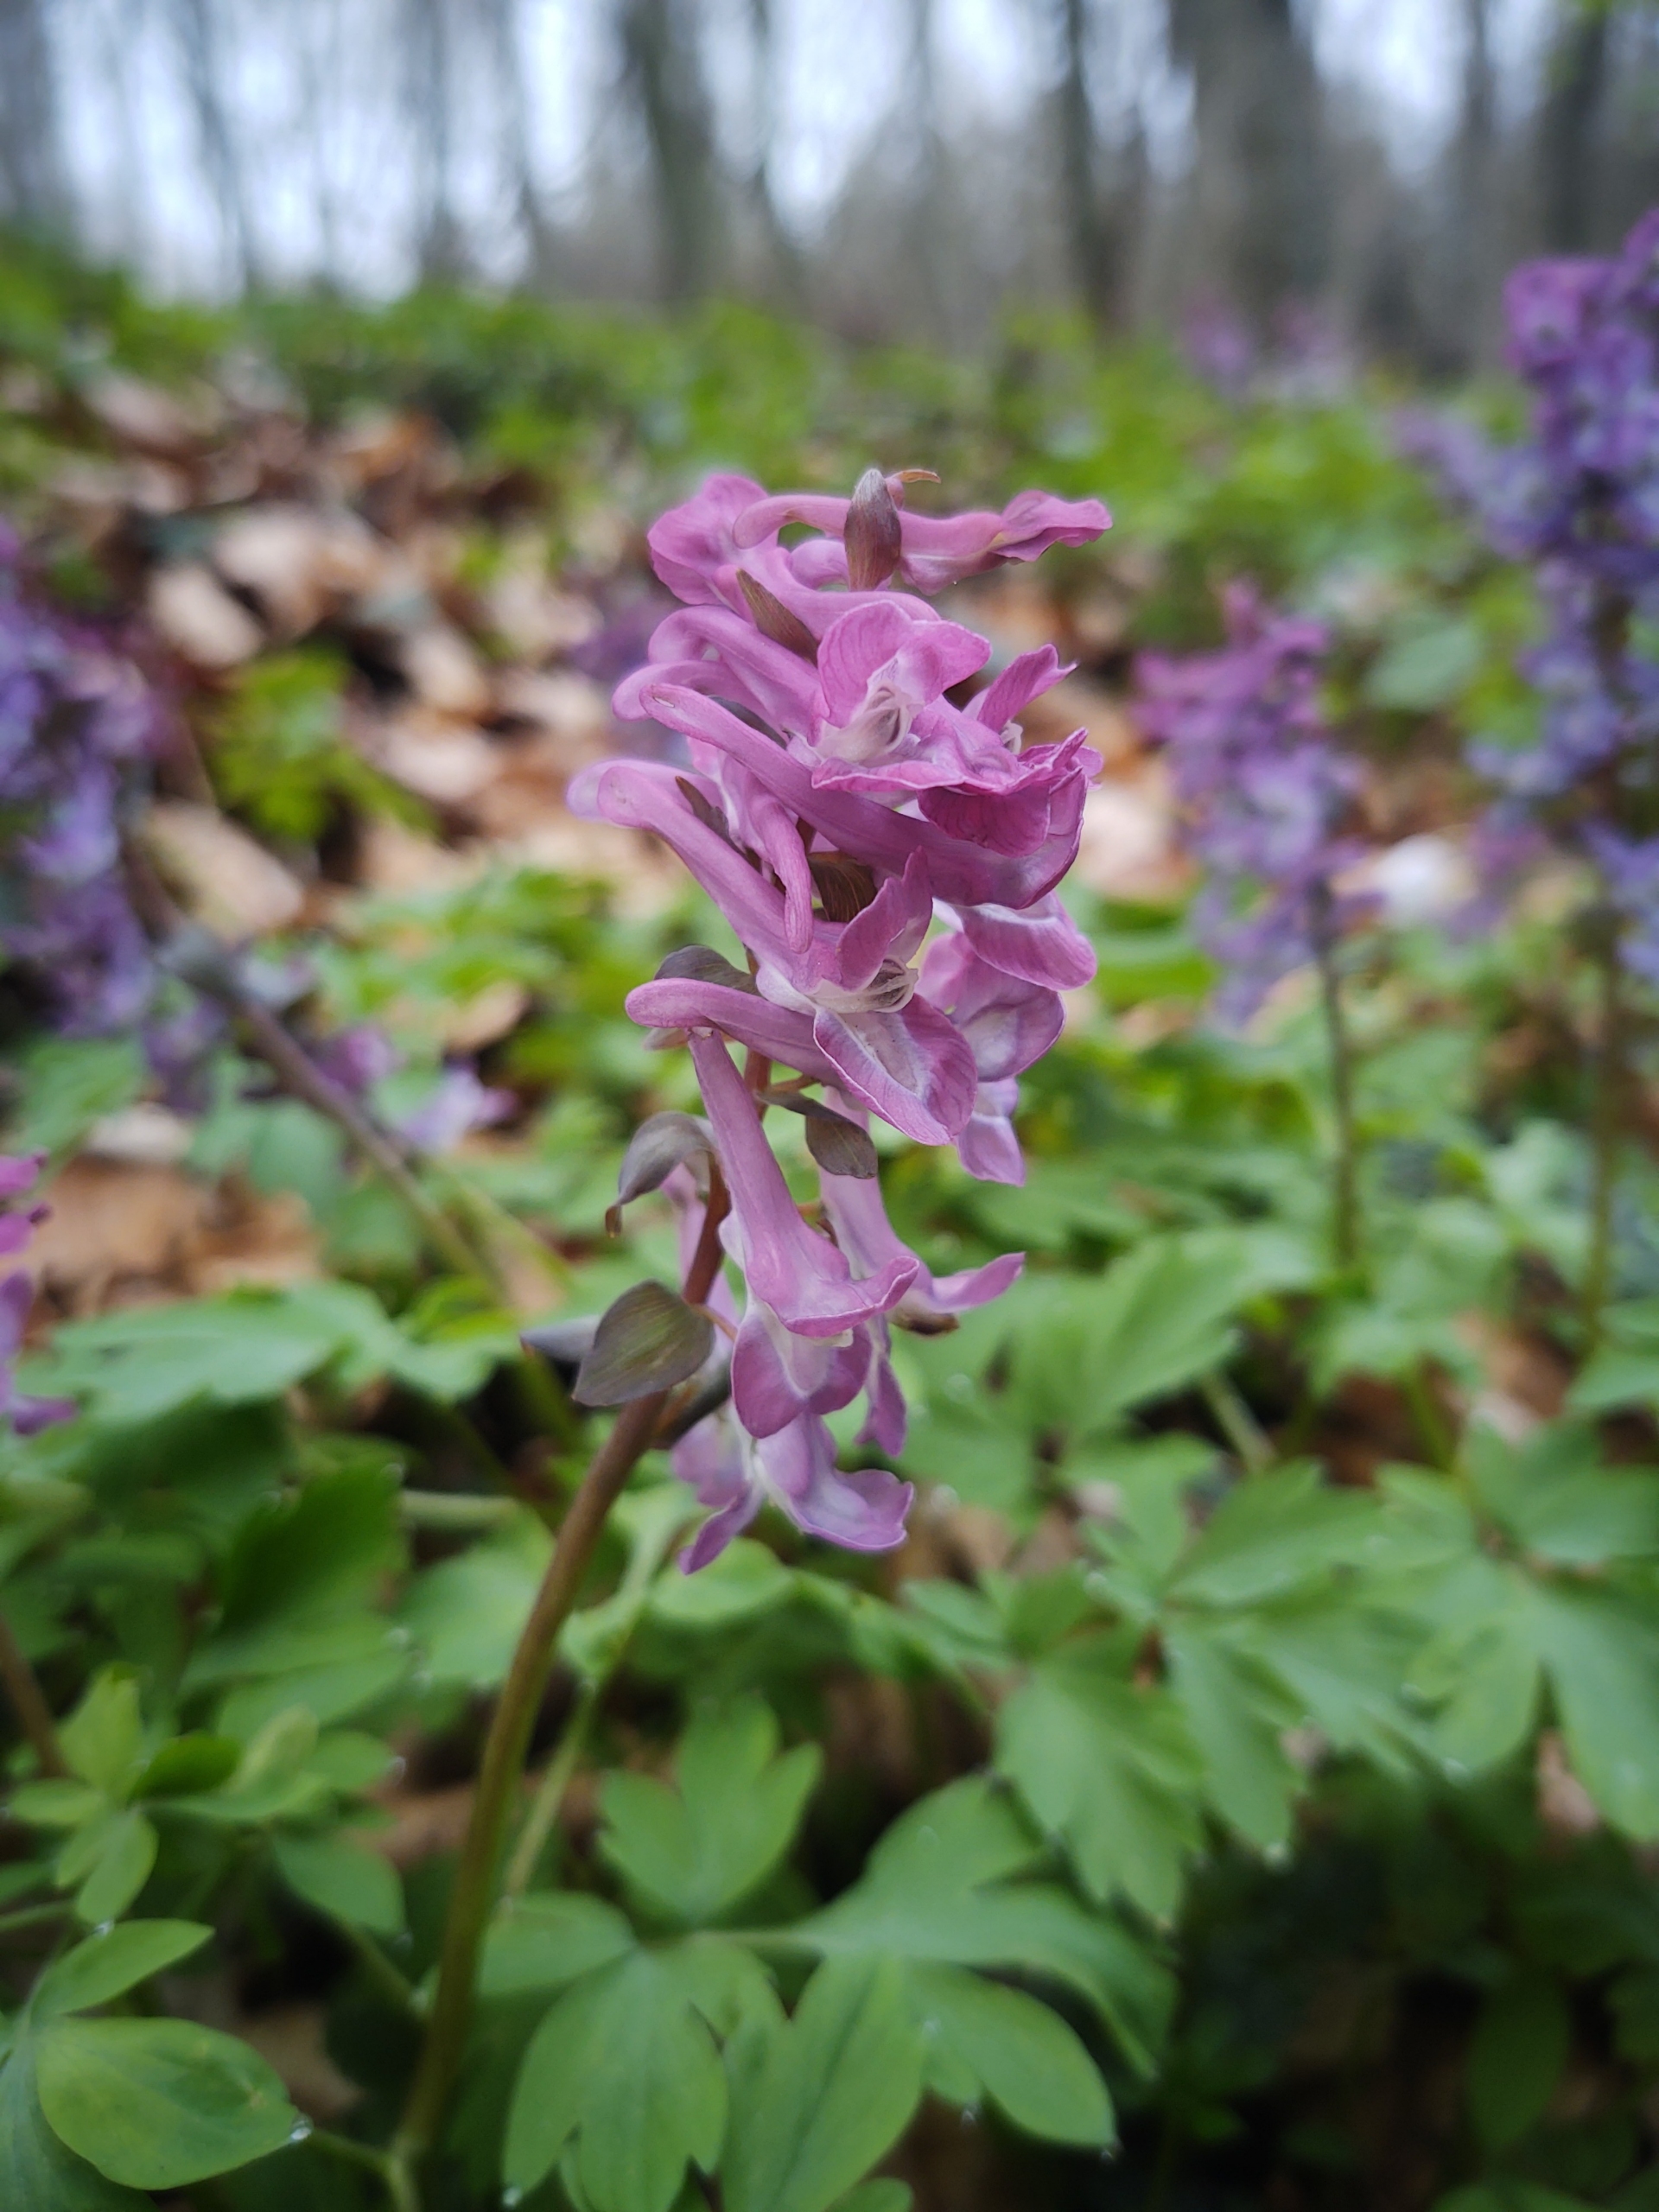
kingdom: Plantae
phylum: Tracheophyta
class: Magnoliopsida
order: Ranunculales
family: Papaveraceae
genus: Corydalis
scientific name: Corydalis cava
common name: Hulrodet lærkespore
